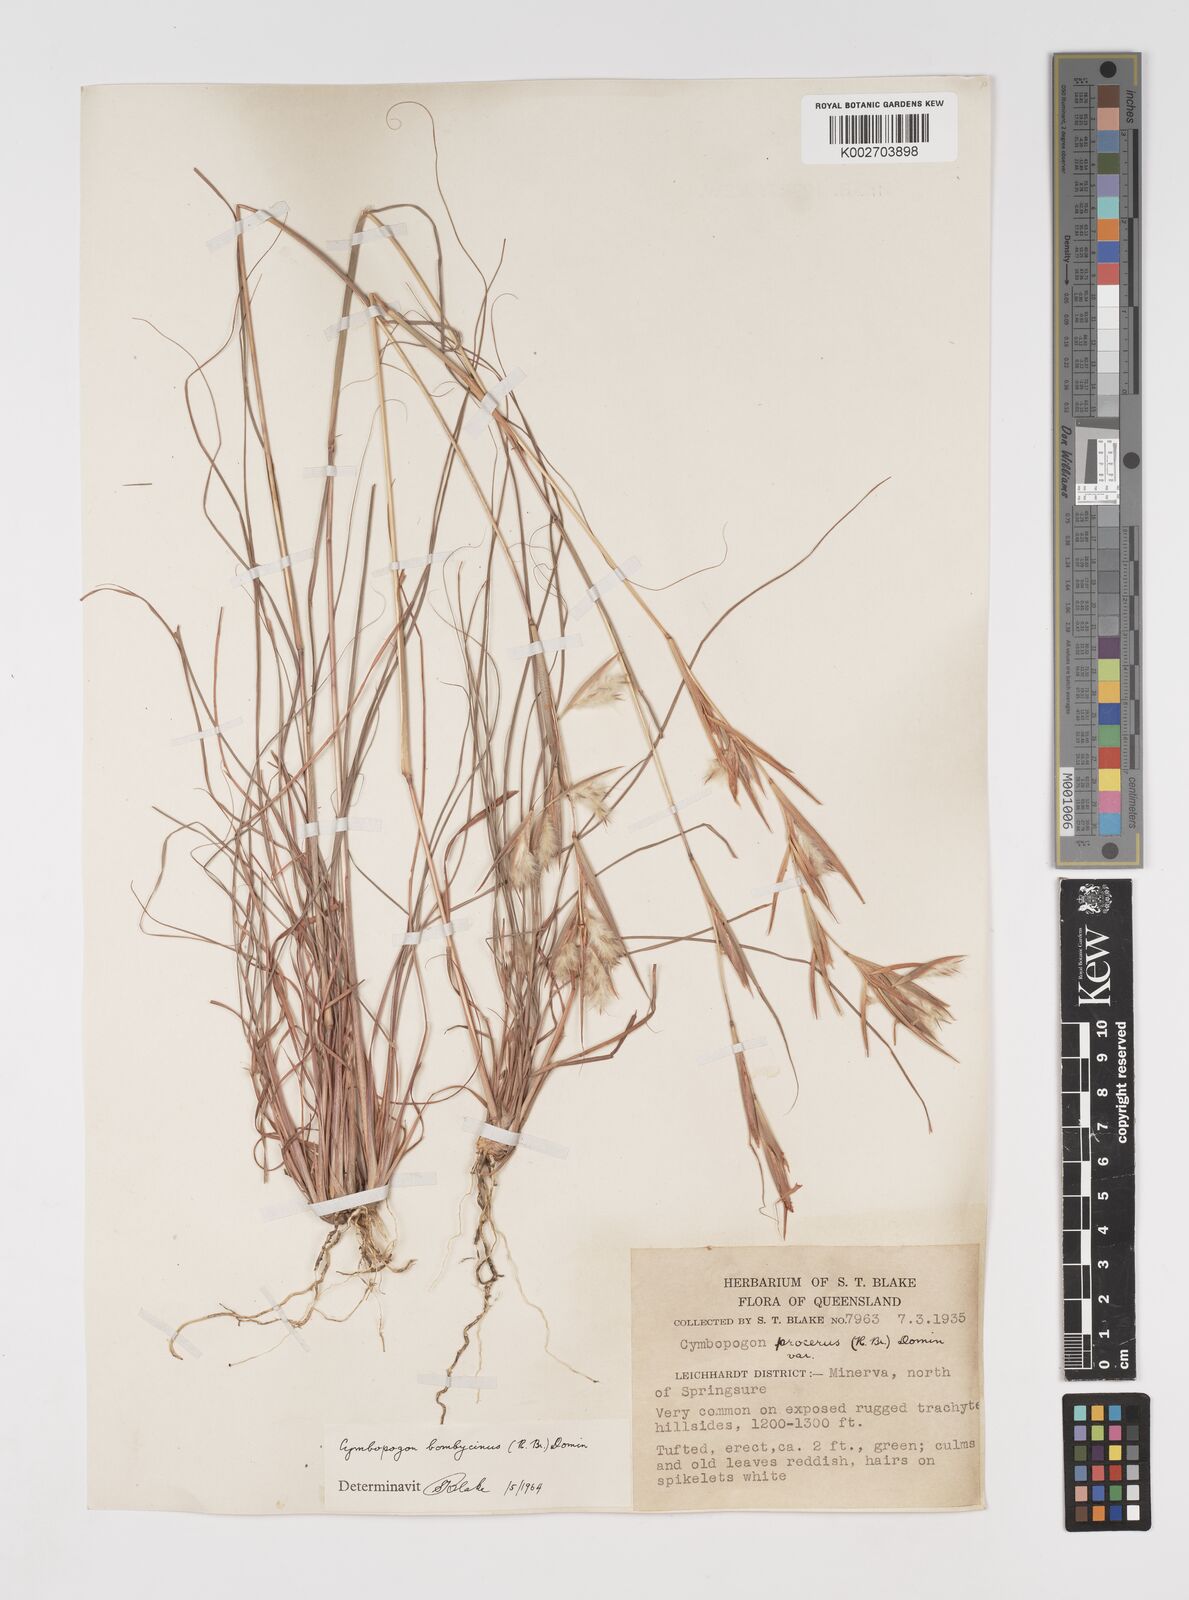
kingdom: Plantae
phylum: Tracheophyta
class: Liliopsida
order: Poales
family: Poaceae
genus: Cymbopogon
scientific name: Cymbopogon bombycinus
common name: Citronella grass
